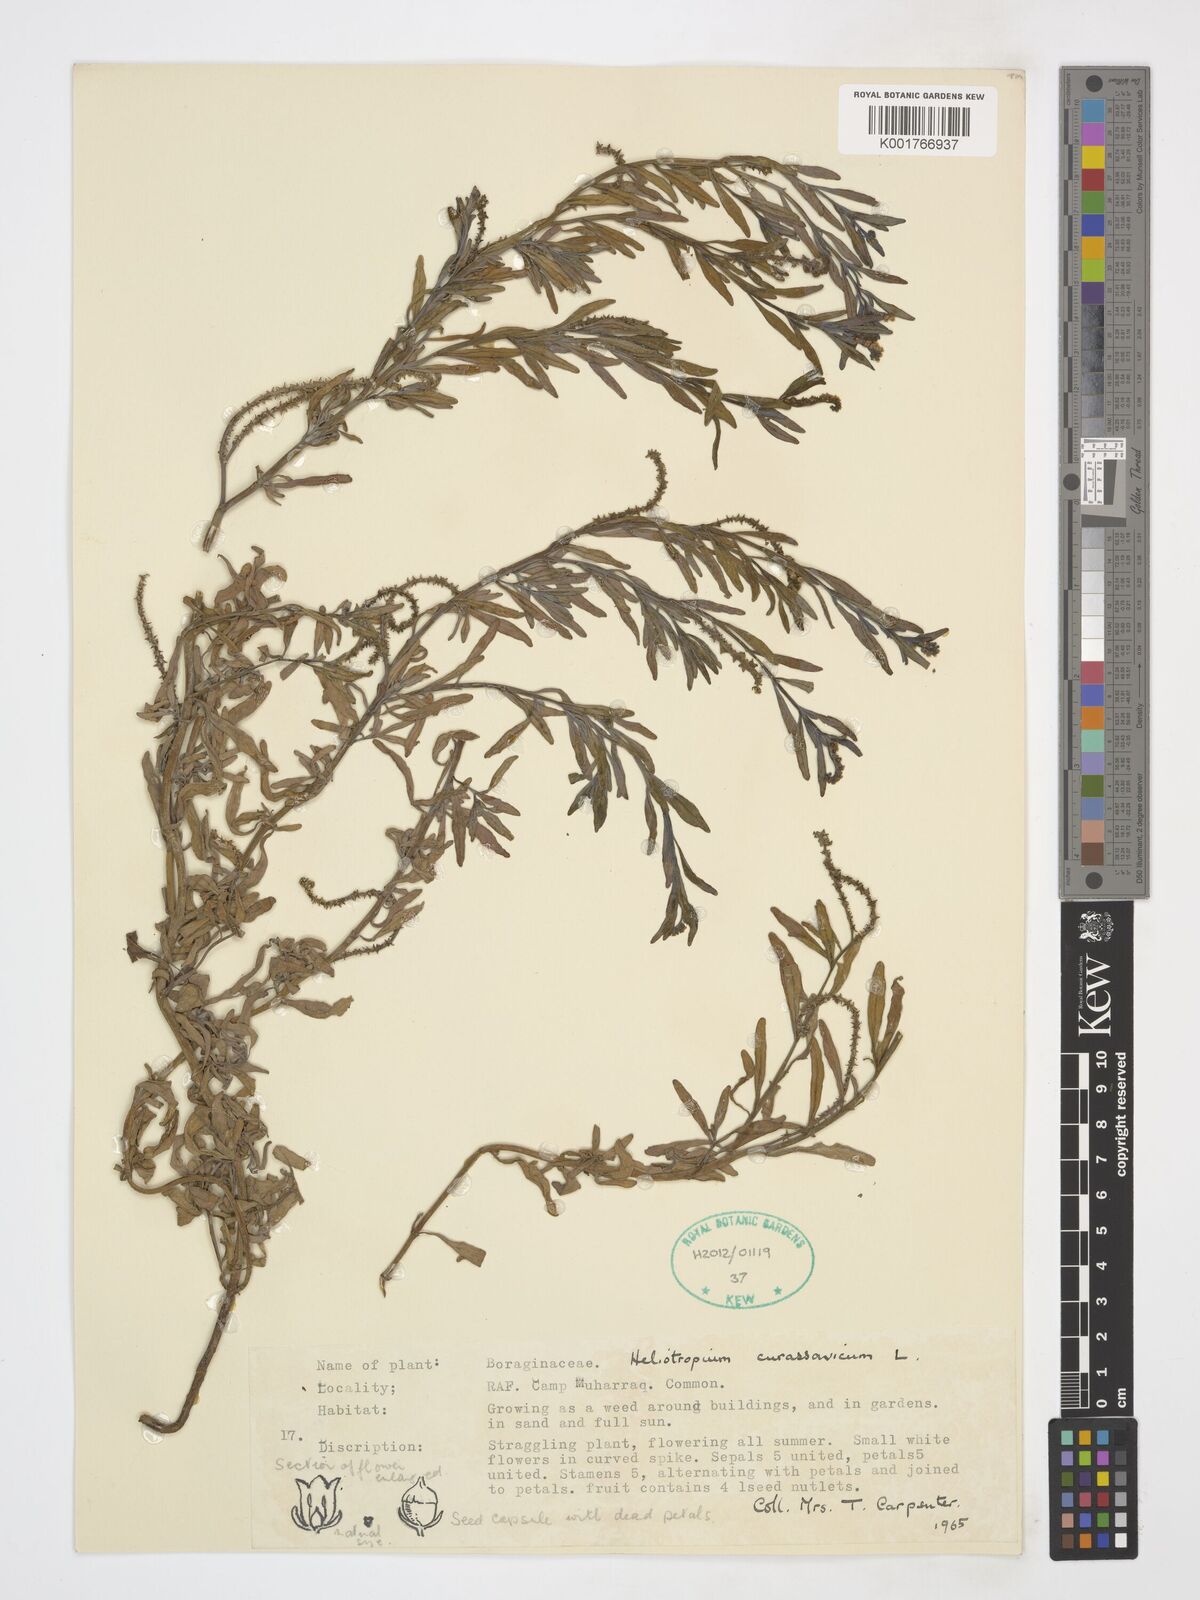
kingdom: Plantae
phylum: Tracheophyta
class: Magnoliopsida
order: Boraginales
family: Heliotropiaceae
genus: Heliotropium
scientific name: Heliotropium curassavicum
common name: Seaside heliotrope
